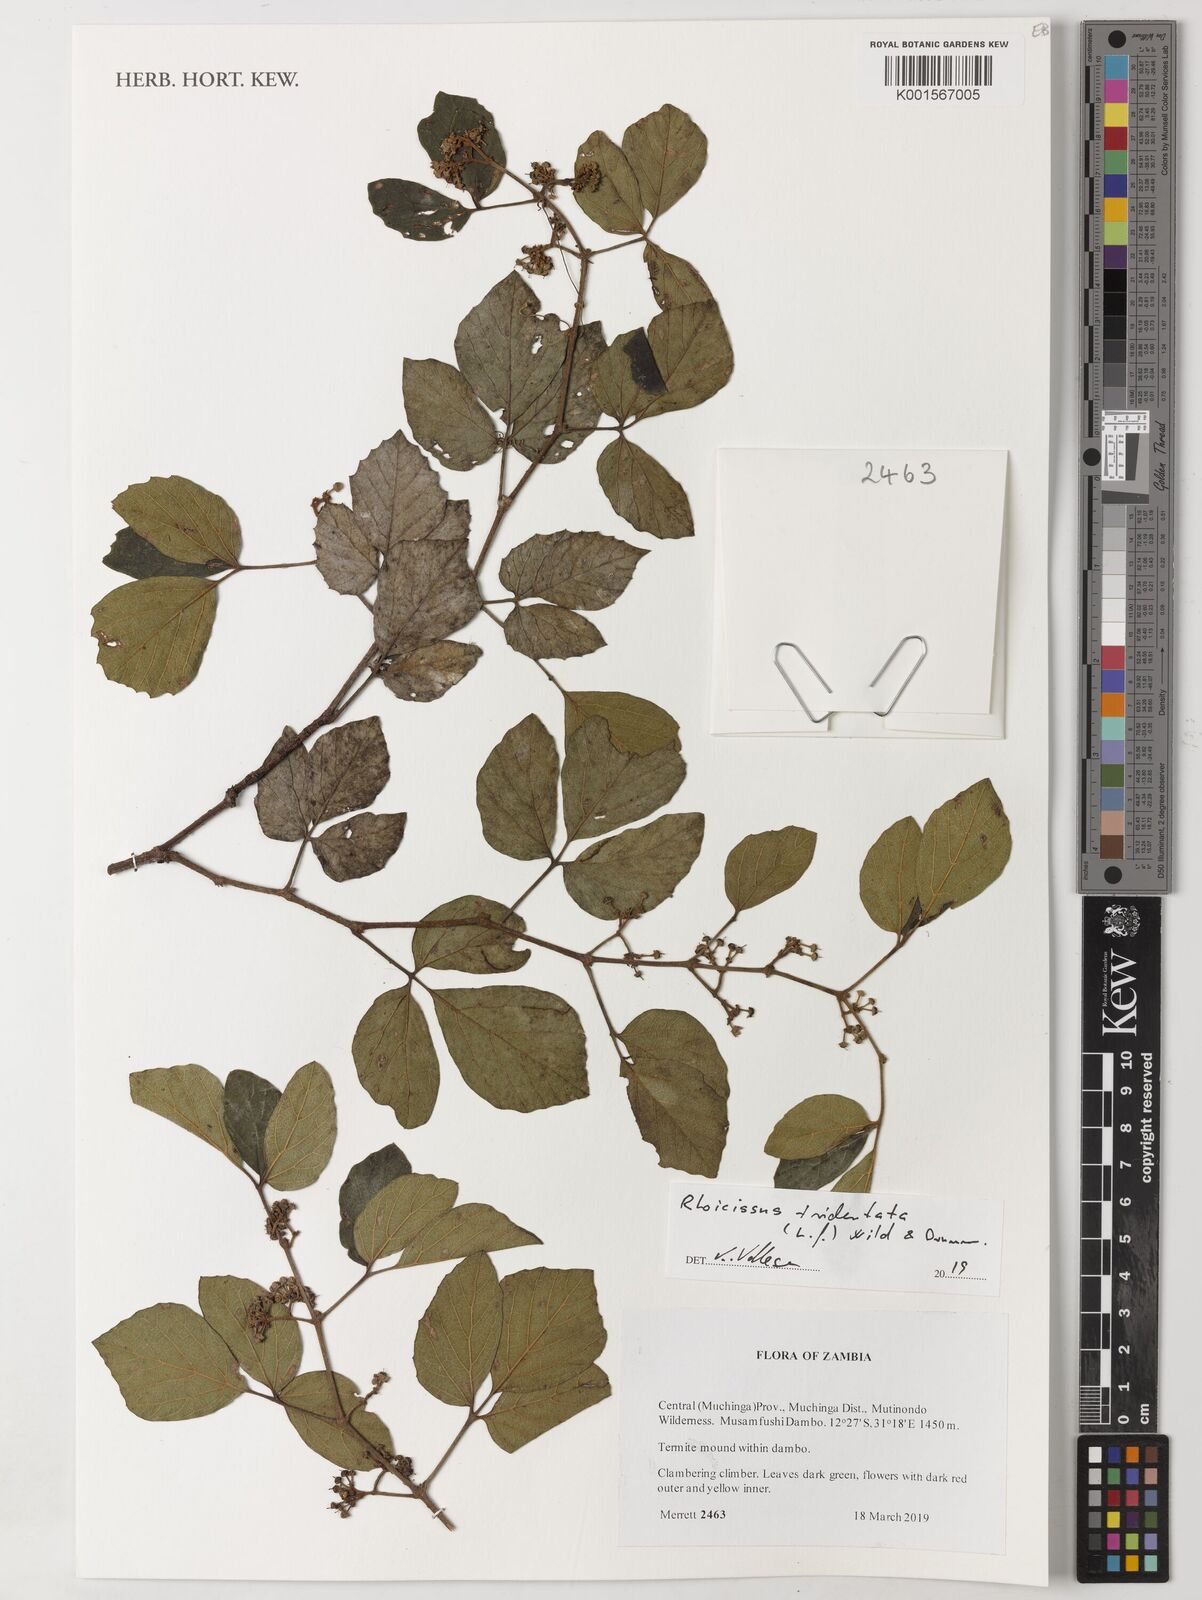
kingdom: Plantae
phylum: Tracheophyta
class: Magnoliopsida
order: Vitales
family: Vitaceae
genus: Rhoicissus
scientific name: Rhoicissus tridentata
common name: Common forest grape
